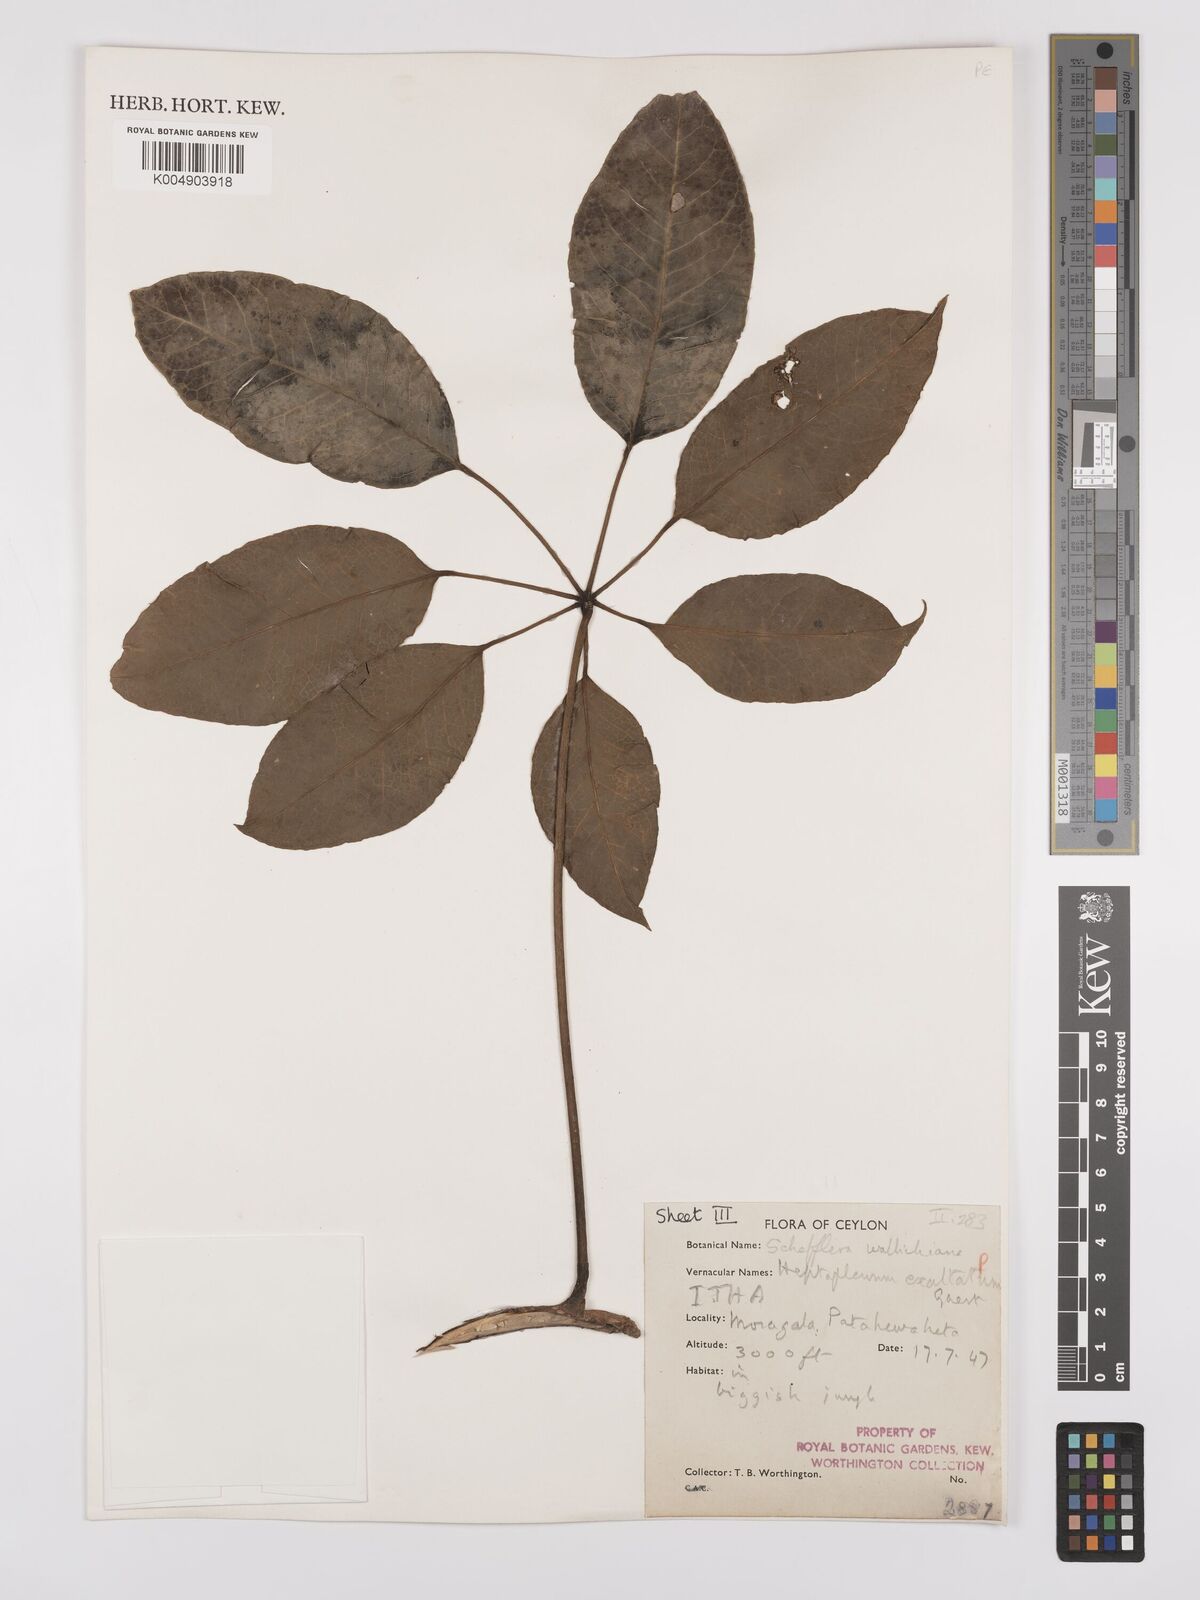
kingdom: Plantae
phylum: Tracheophyta
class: Magnoliopsida
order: Apiales
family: Araliaceae
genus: Heptapleurum
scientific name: Heptapleurum
